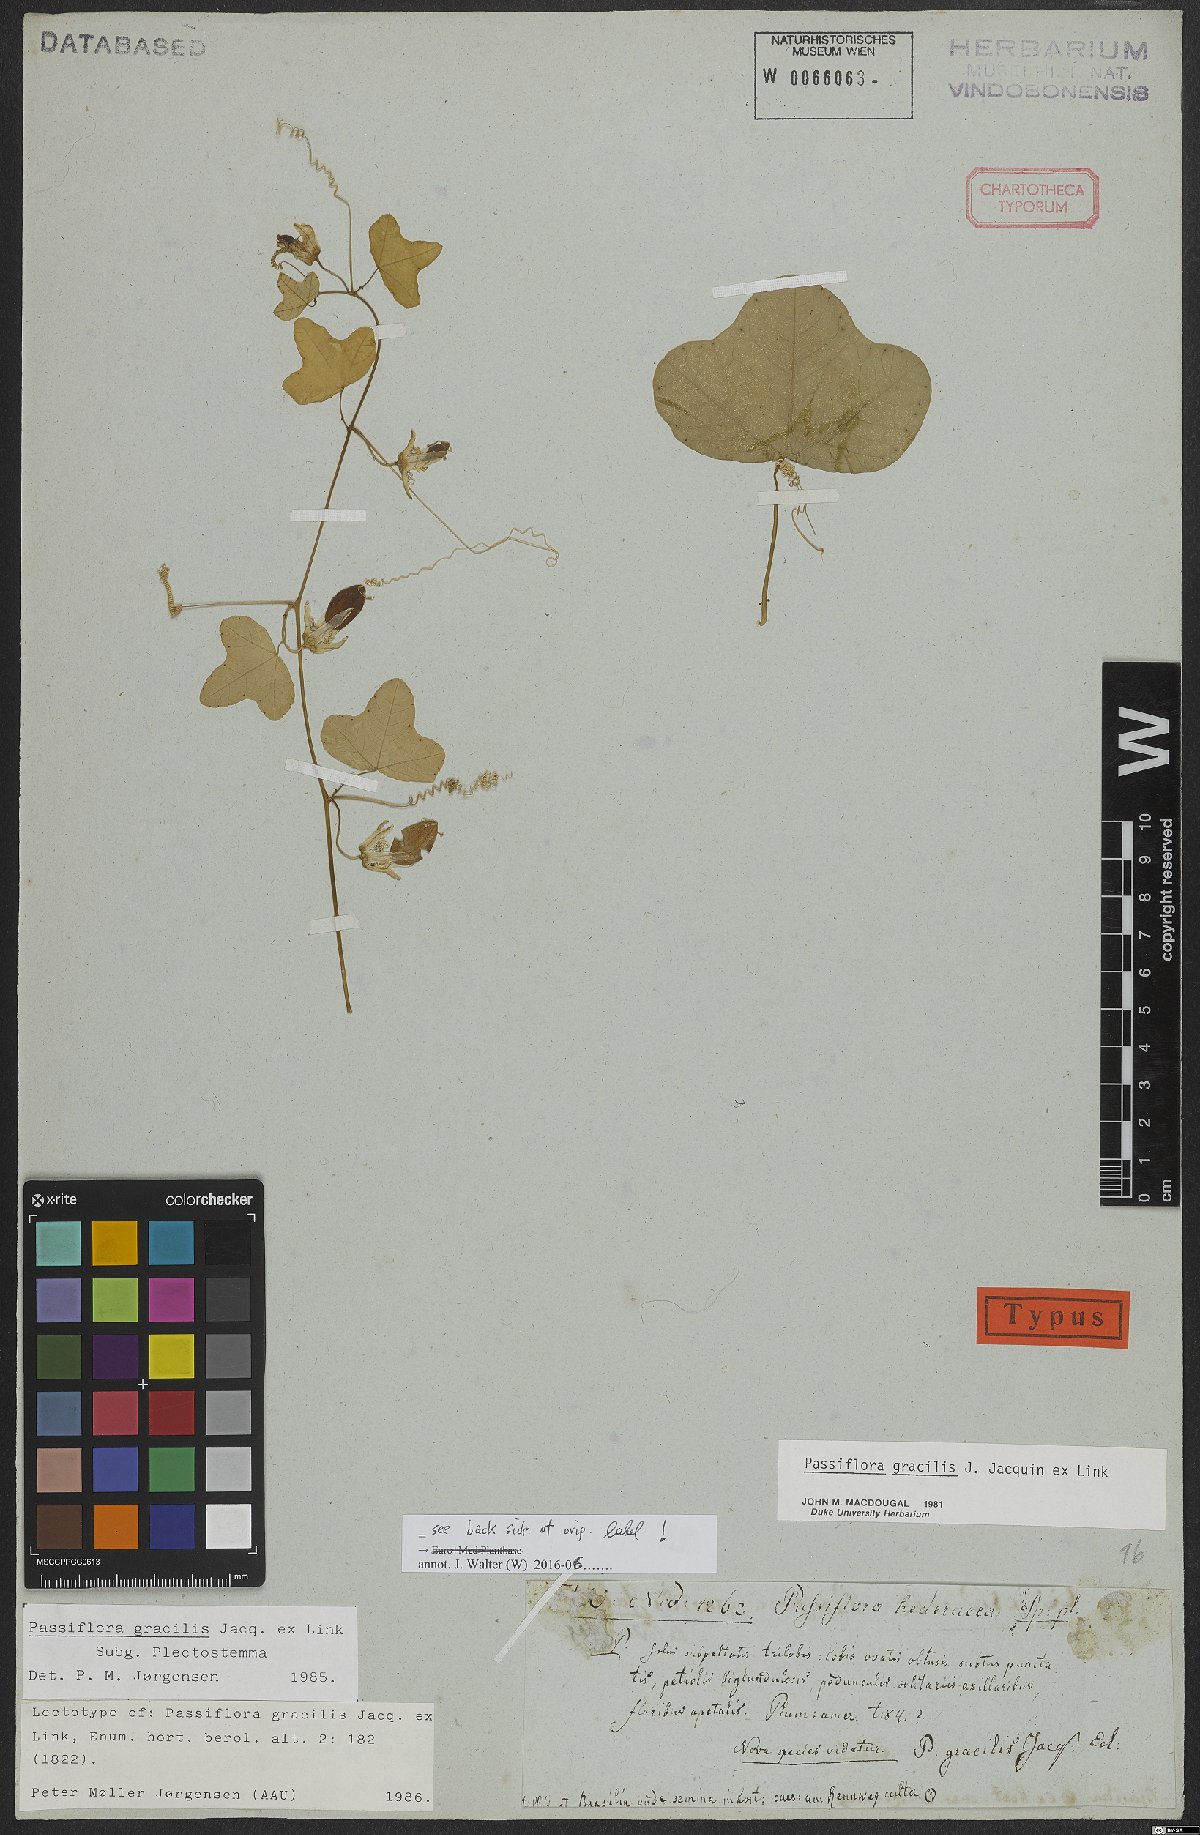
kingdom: Plantae
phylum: Tracheophyta
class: Magnoliopsida
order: Malpighiales
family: Passifloraceae
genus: Passiflora
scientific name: Passiflora gracilis
